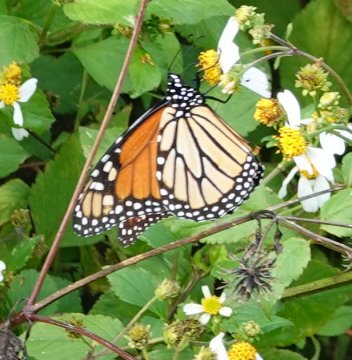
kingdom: Animalia
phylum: Arthropoda
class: Insecta
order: Lepidoptera
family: Nymphalidae
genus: Danaus
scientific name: Danaus plexippus
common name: Monarch
